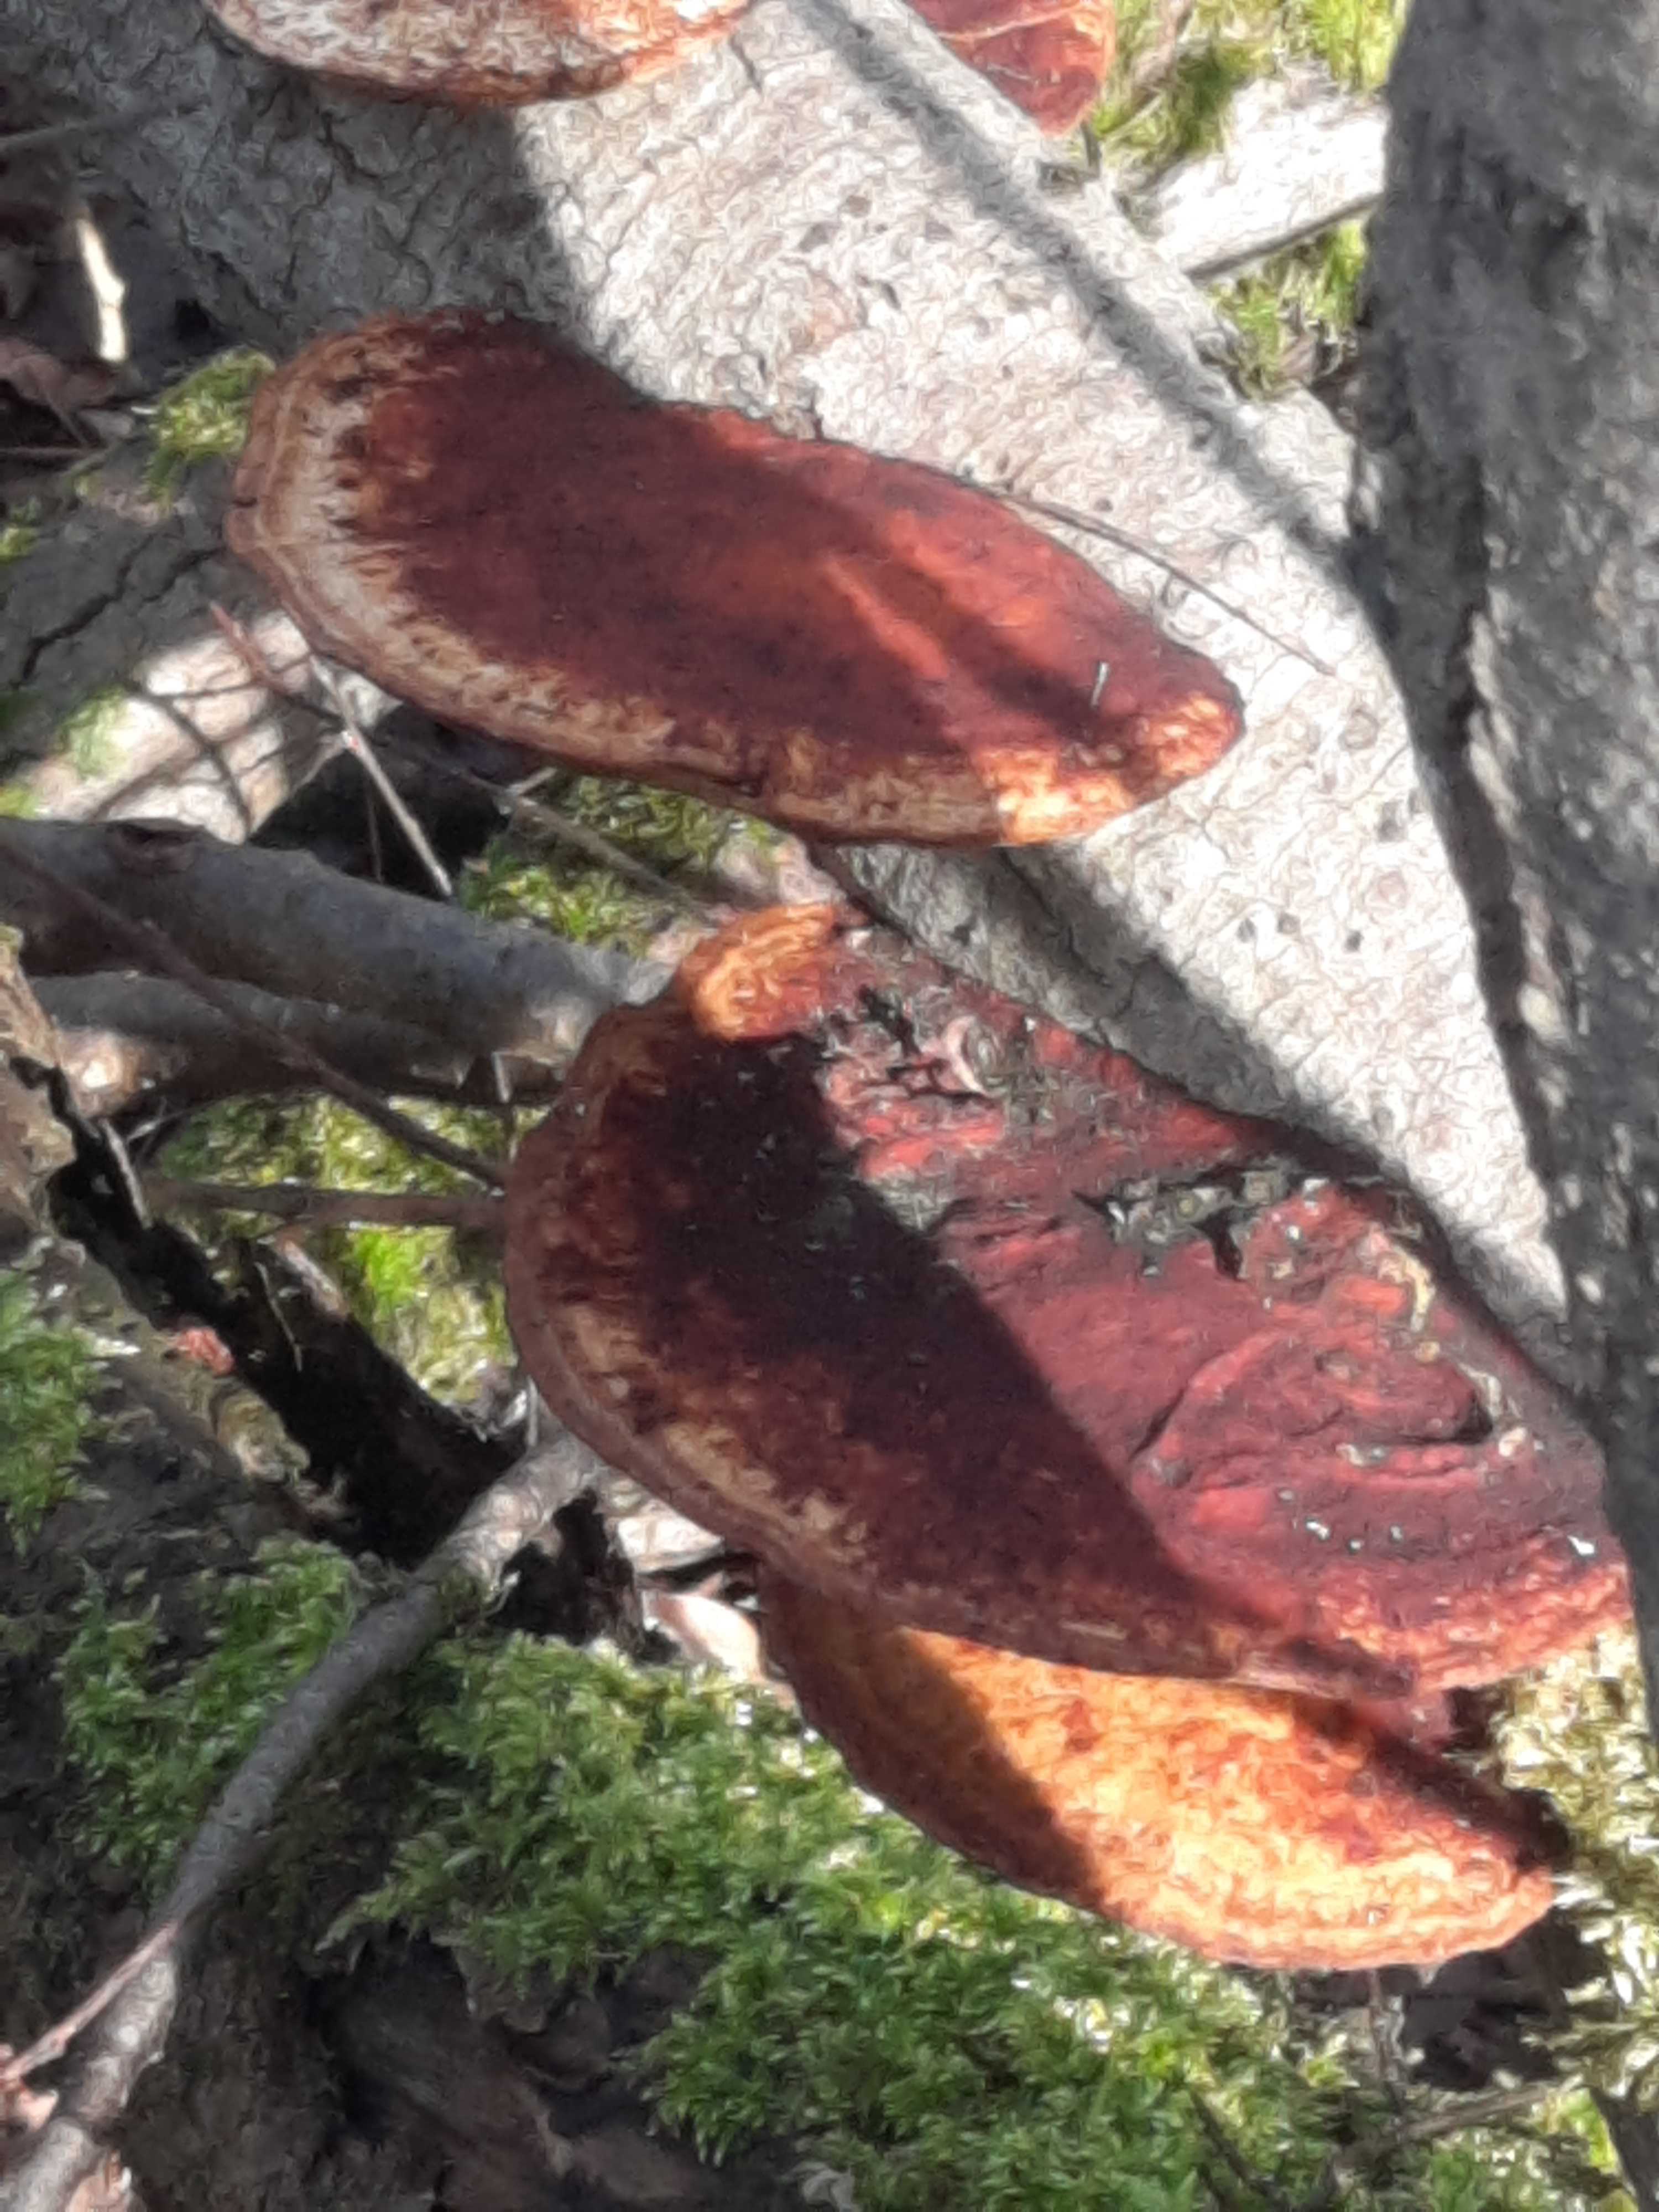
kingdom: Fungi
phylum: Basidiomycota
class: Agaricomycetes
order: Polyporales
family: Polyporaceae
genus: Daedaleopsis
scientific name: Daedaleopsis confragosa
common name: rødmende læderporesvamp
